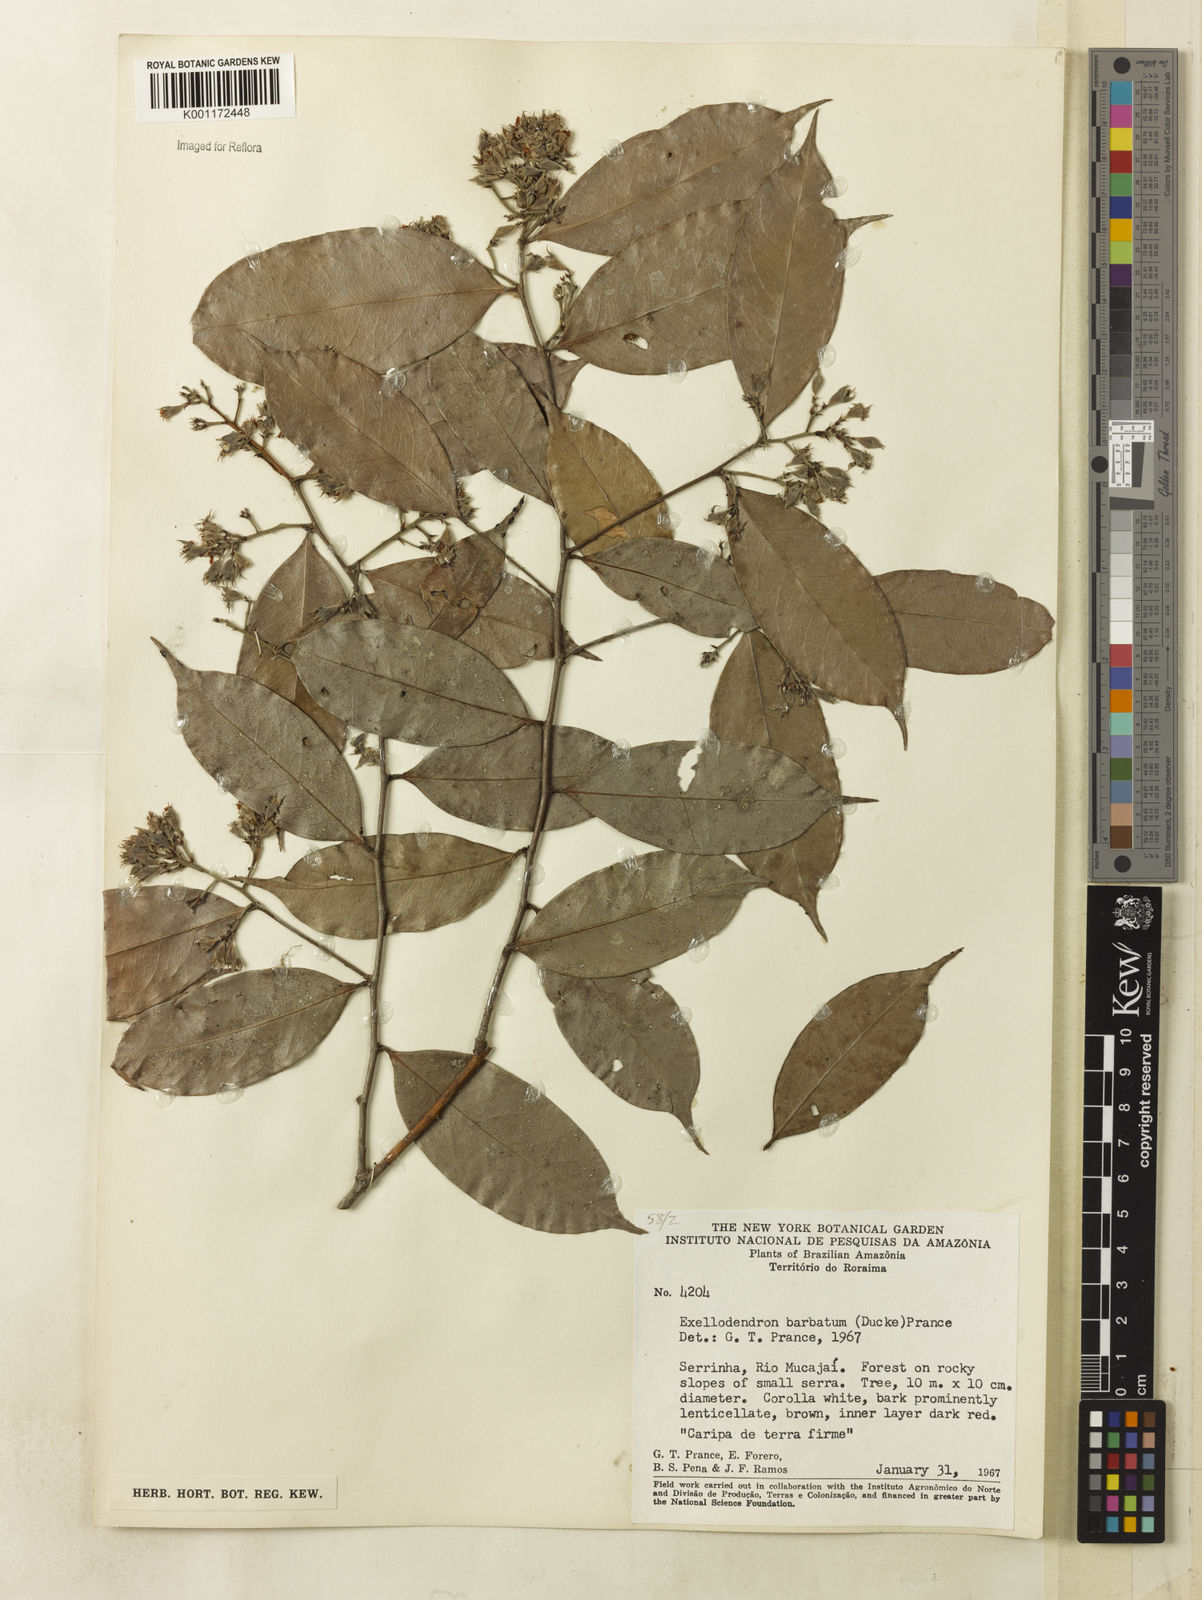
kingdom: Plantae
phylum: Tracheophyta
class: Magnoliopsida
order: Malpighiales
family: Chrysobalanaceae
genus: Atuna
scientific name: Atuna
